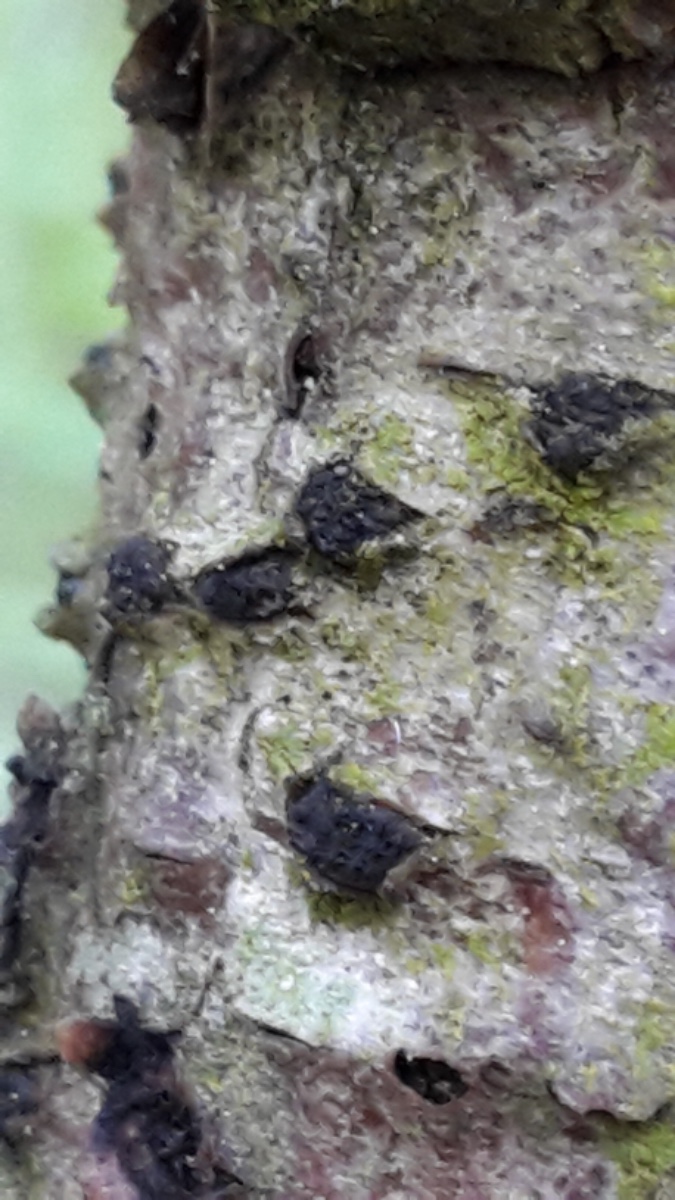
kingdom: Fungi
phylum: Ascomycota
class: Sordariomycetes
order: Xylariales
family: Diatrypaceae
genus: Diatrypella
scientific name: Diatrypella
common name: kulskorpe
